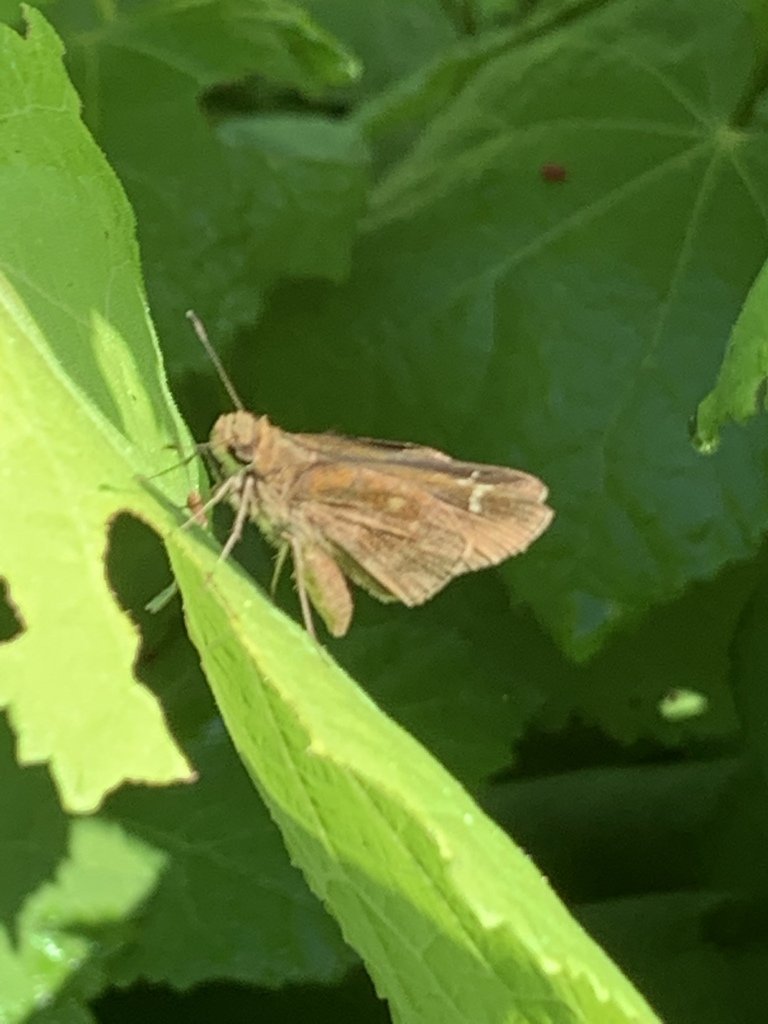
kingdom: Animalia
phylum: Arthropoda
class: Insecta
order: Lepidoptera
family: Hesperiidae
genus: Lerema
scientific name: Lerema accius
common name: Clouded Skipper
